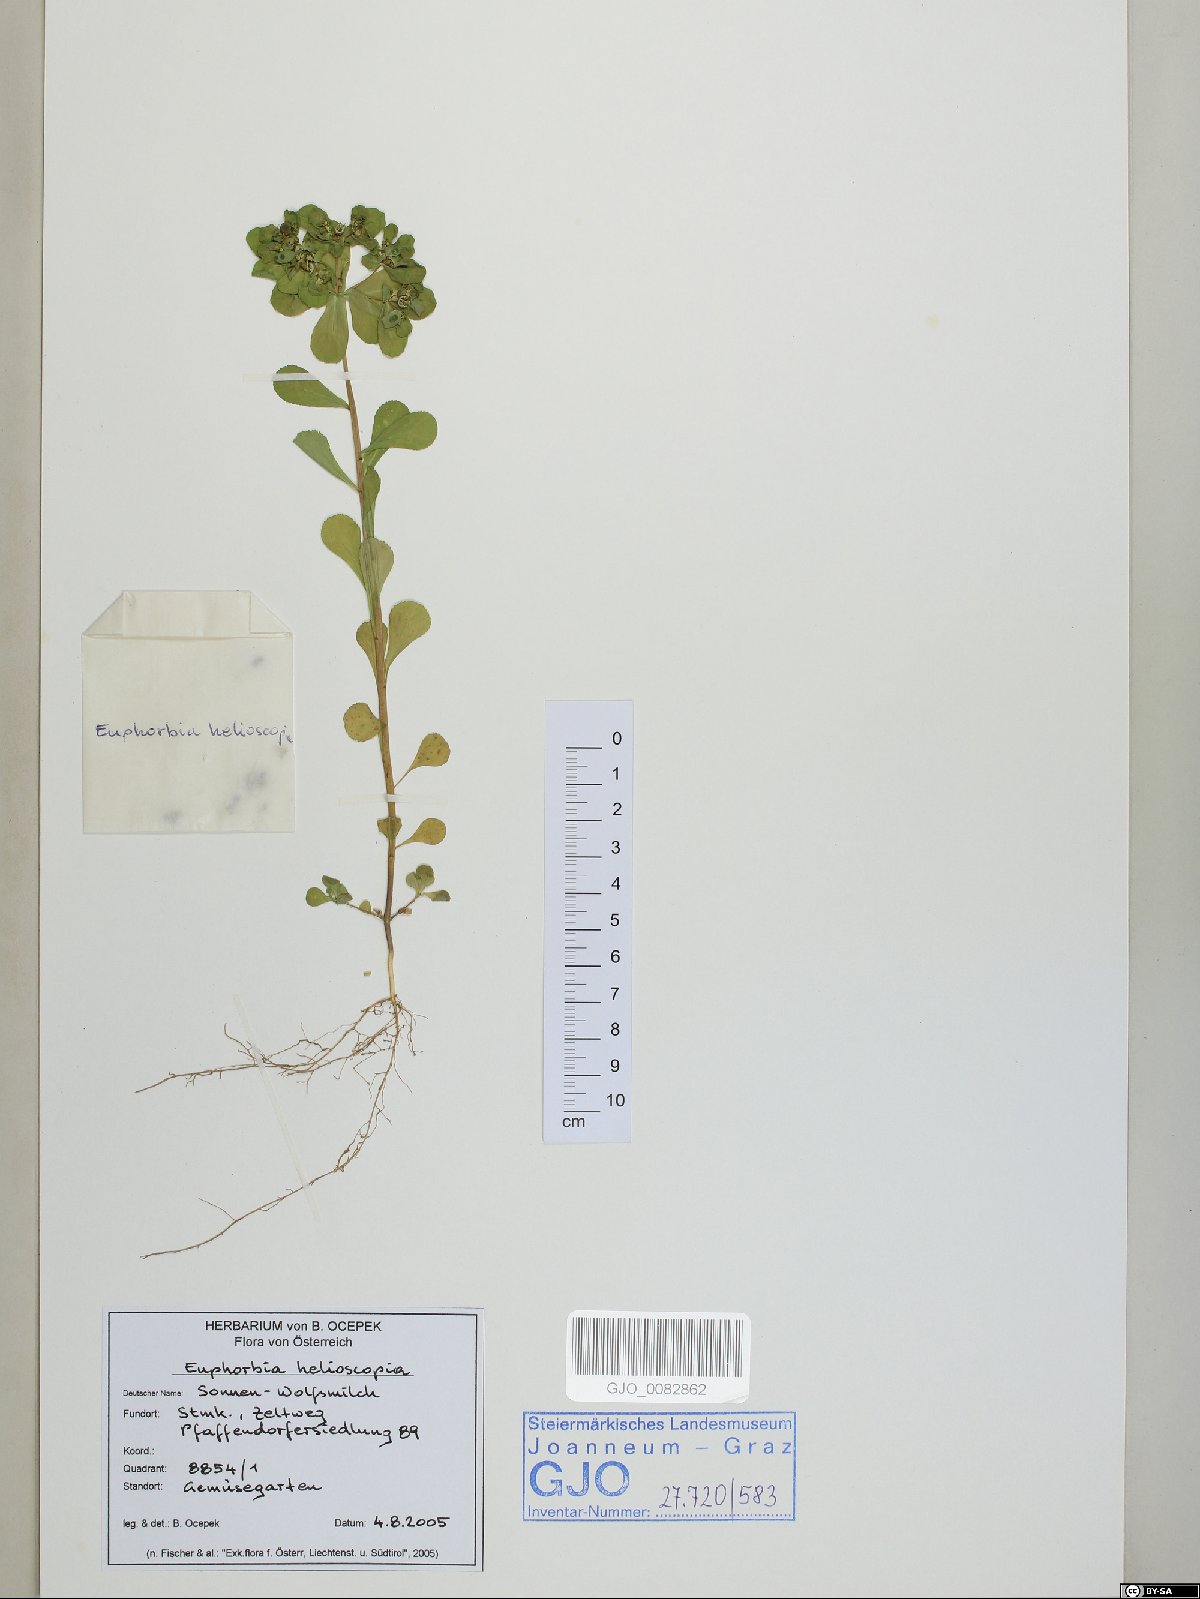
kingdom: Plantae
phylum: Tracheophyta
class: Magnoliopsida
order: Malpighiales
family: Euphorbiaceae
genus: Euphorbia
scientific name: Euphorbia helioscopia
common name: Sun spurge
